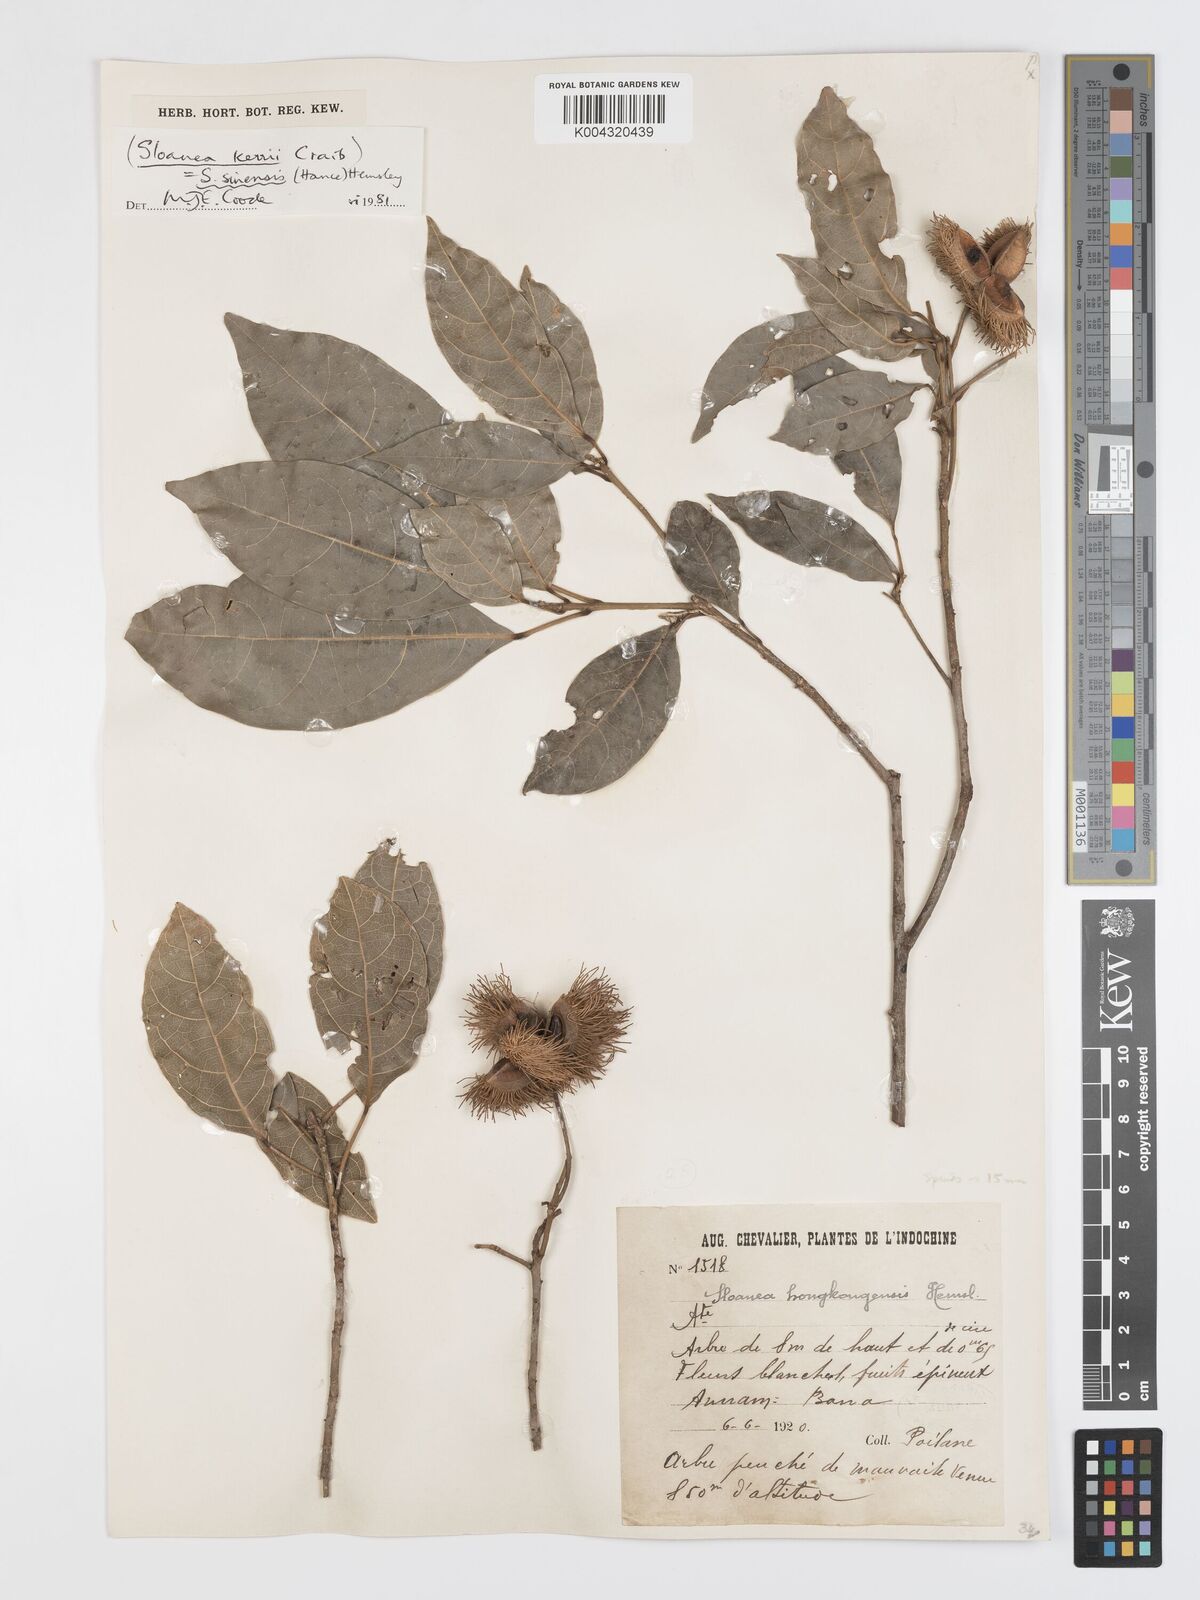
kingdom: Plantae
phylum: Tracheophyta
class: Magnoliopsida
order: Oxalidales
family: Elaeocarpaceae
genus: Sloanea
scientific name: Sloanea sinensis
